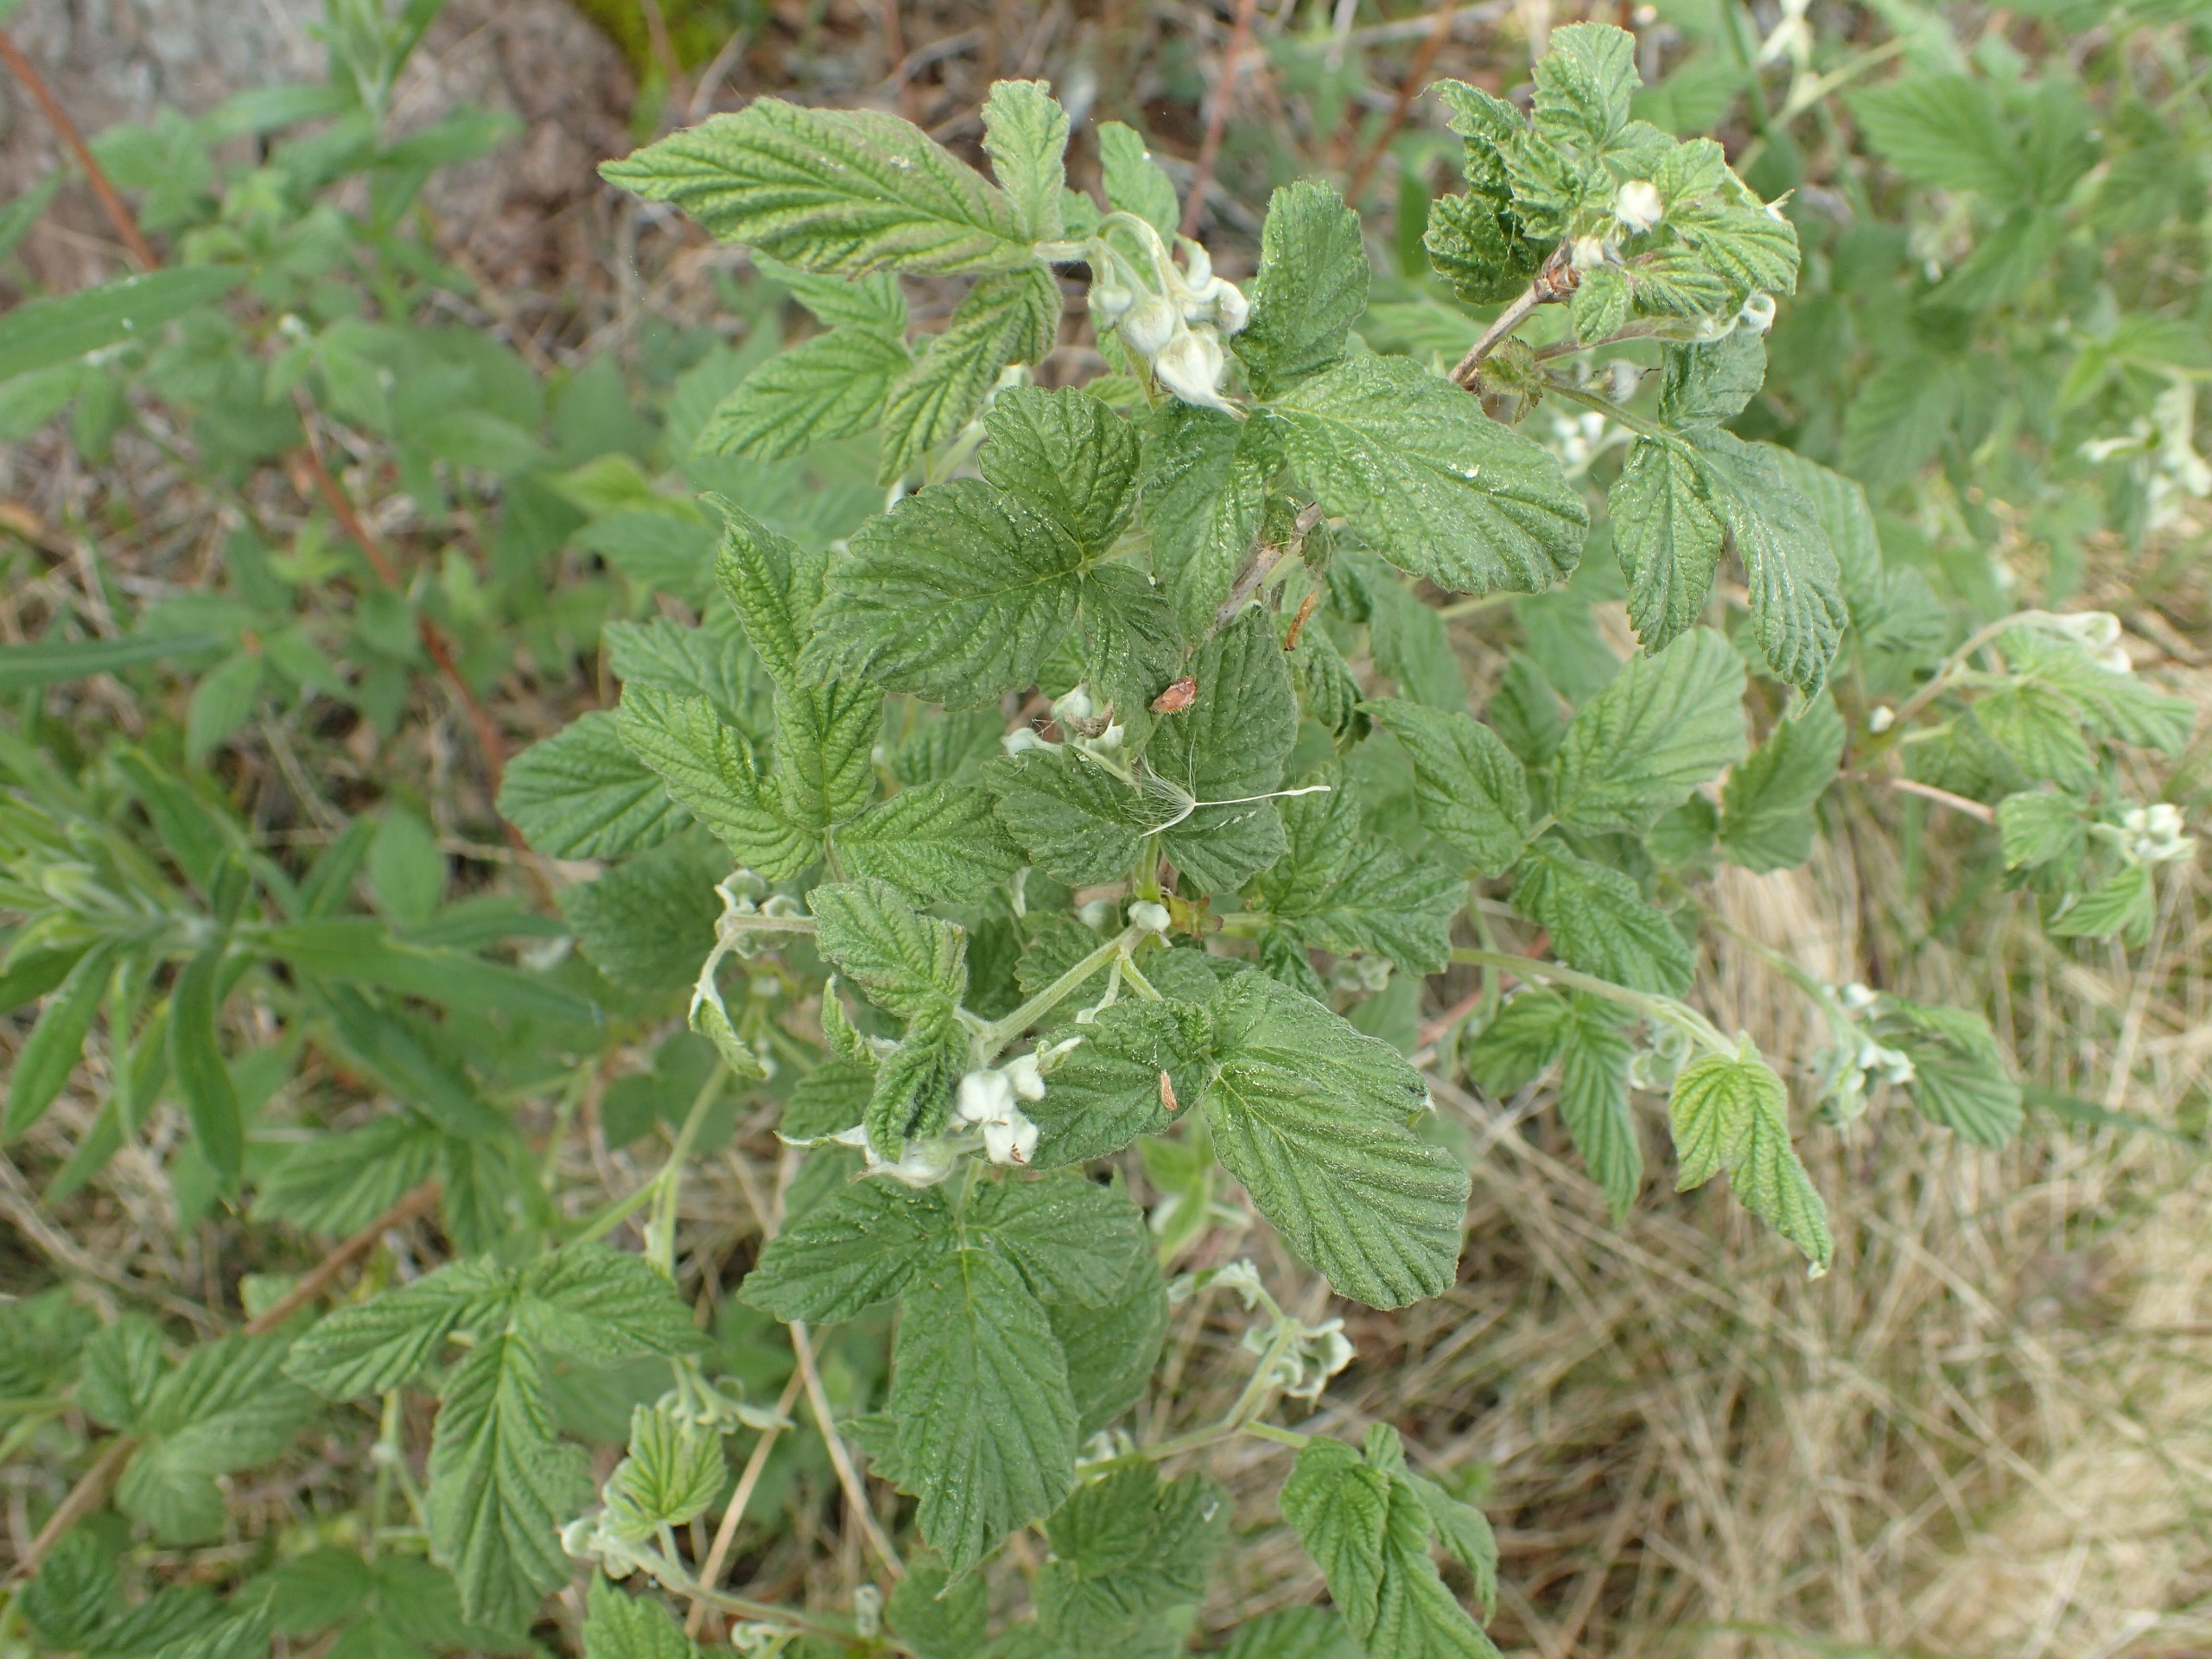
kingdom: Plantae
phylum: Tracheophyta
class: Magnoliopsida
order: Rosales
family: Rosaceae
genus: Rubus
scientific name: Rubus idaeus
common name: Hindbær
